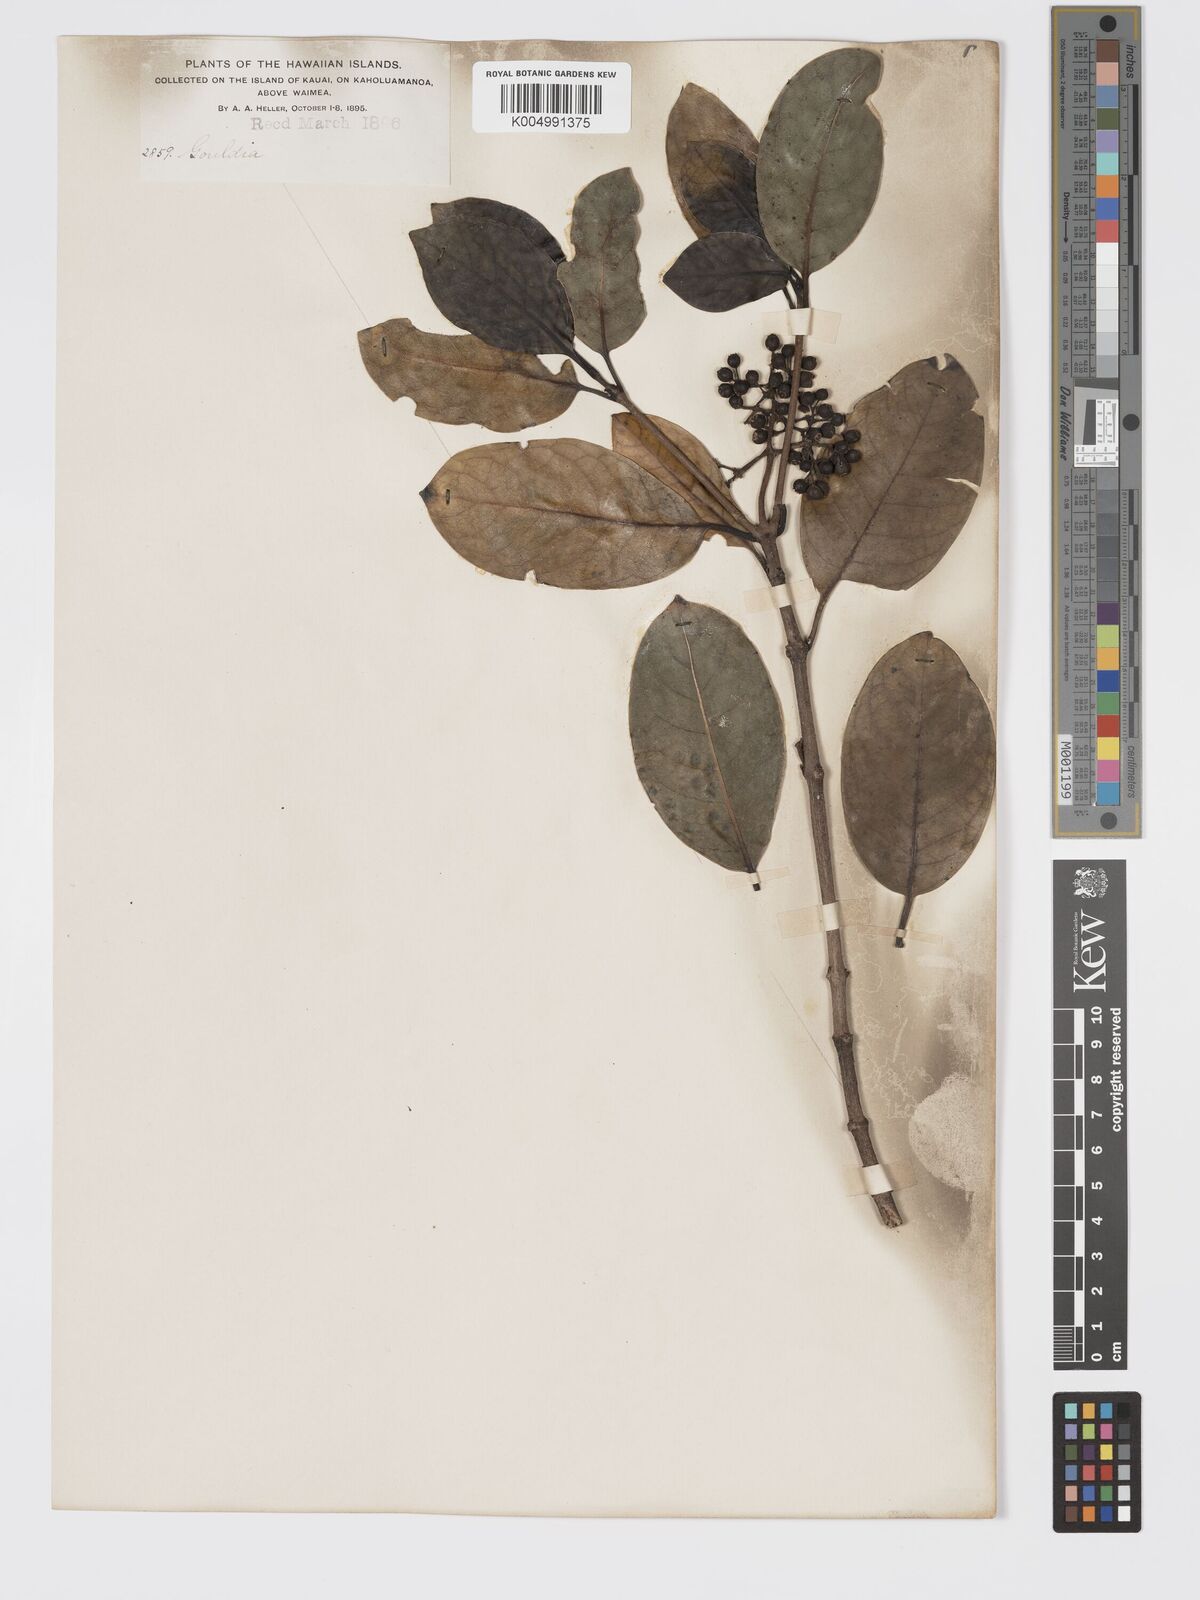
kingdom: Plantae
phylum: Tracheophyta
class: Magnoliopsida
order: Gentianales
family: Rubiaceae
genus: Kadua
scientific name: Kadua affinis
